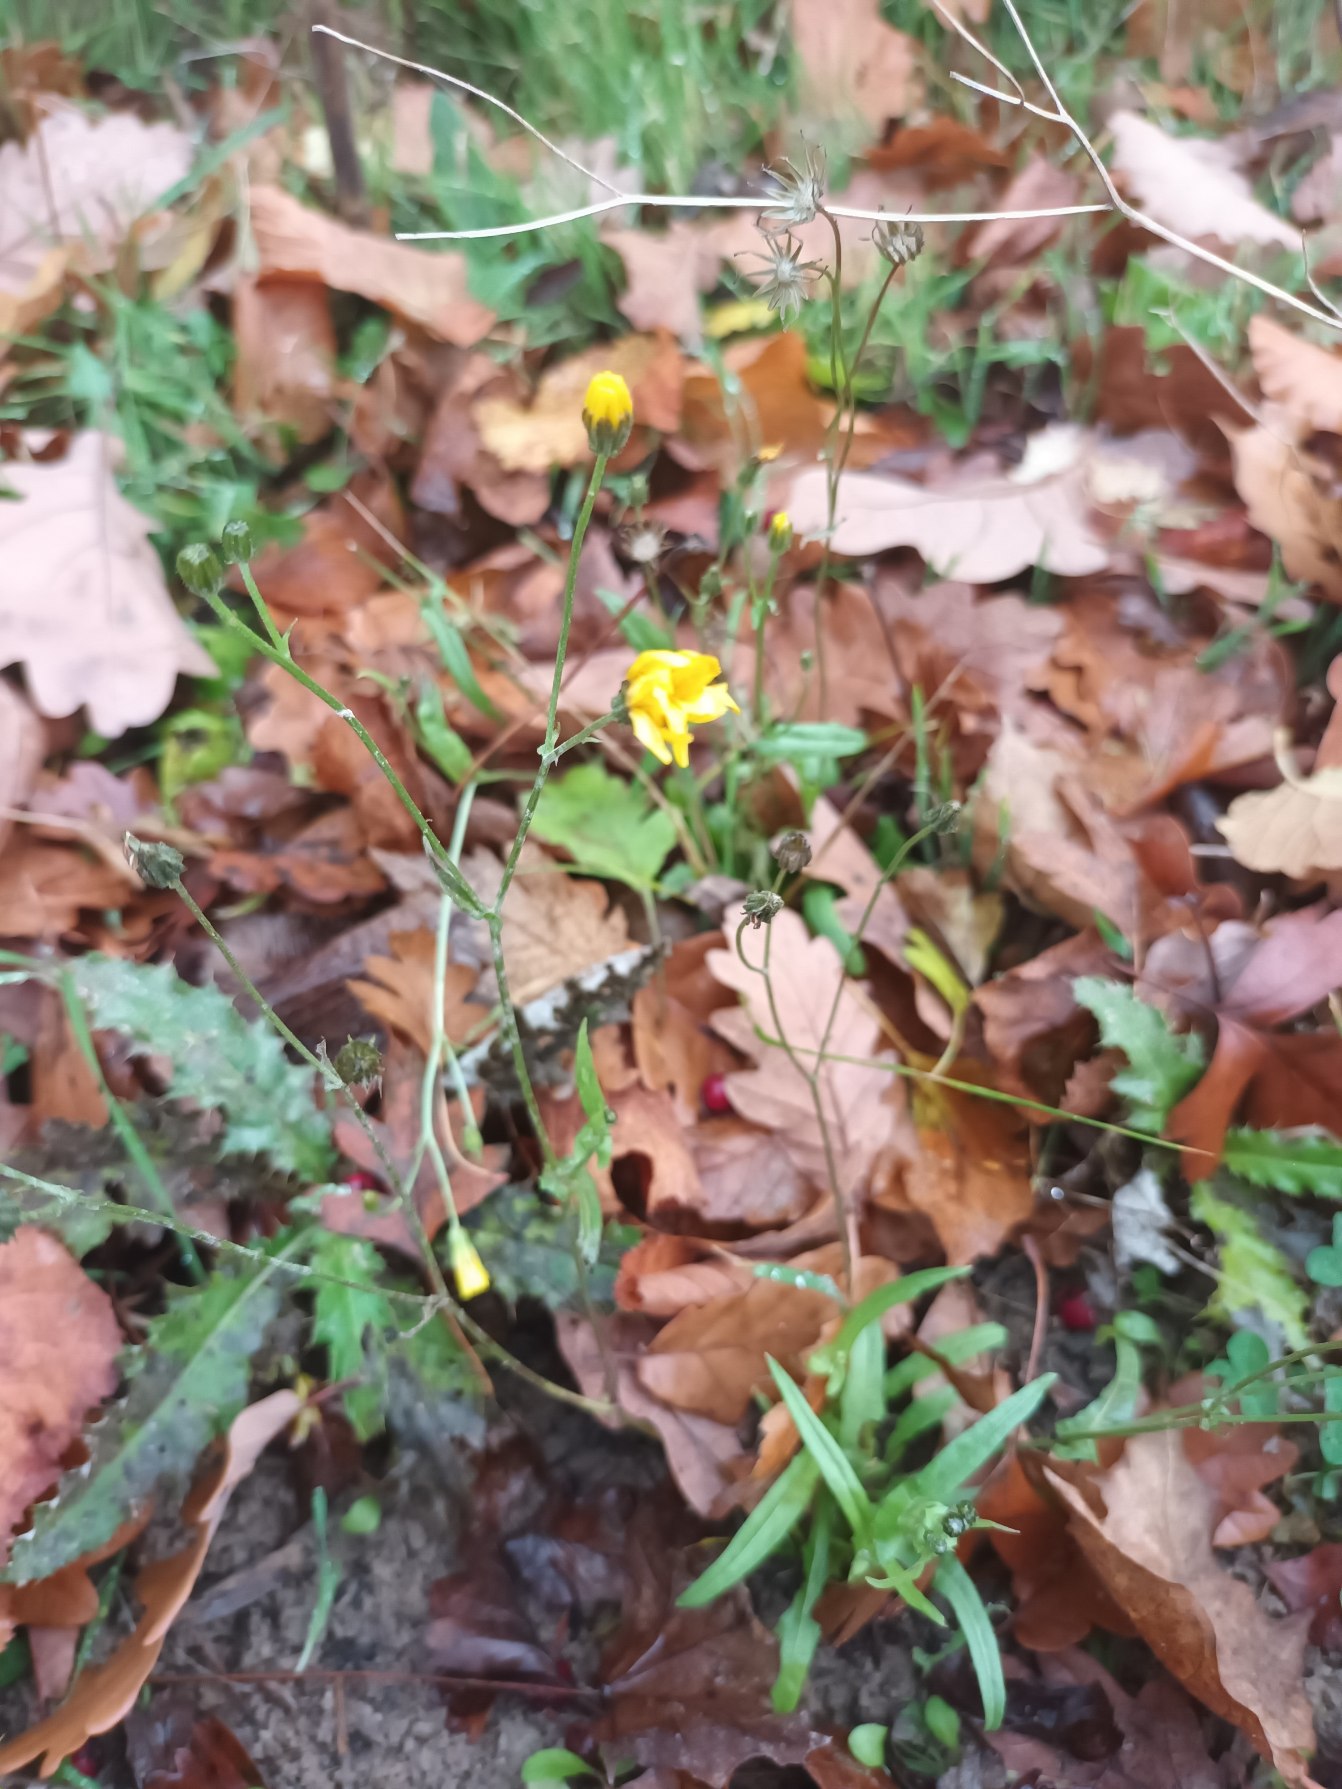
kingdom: Plantae
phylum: Tracheophyta
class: Magnoliopsida
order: Asterales
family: Asteraceae
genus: Crepis
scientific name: Crepis capillaris
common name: Grøn høgeskæg
